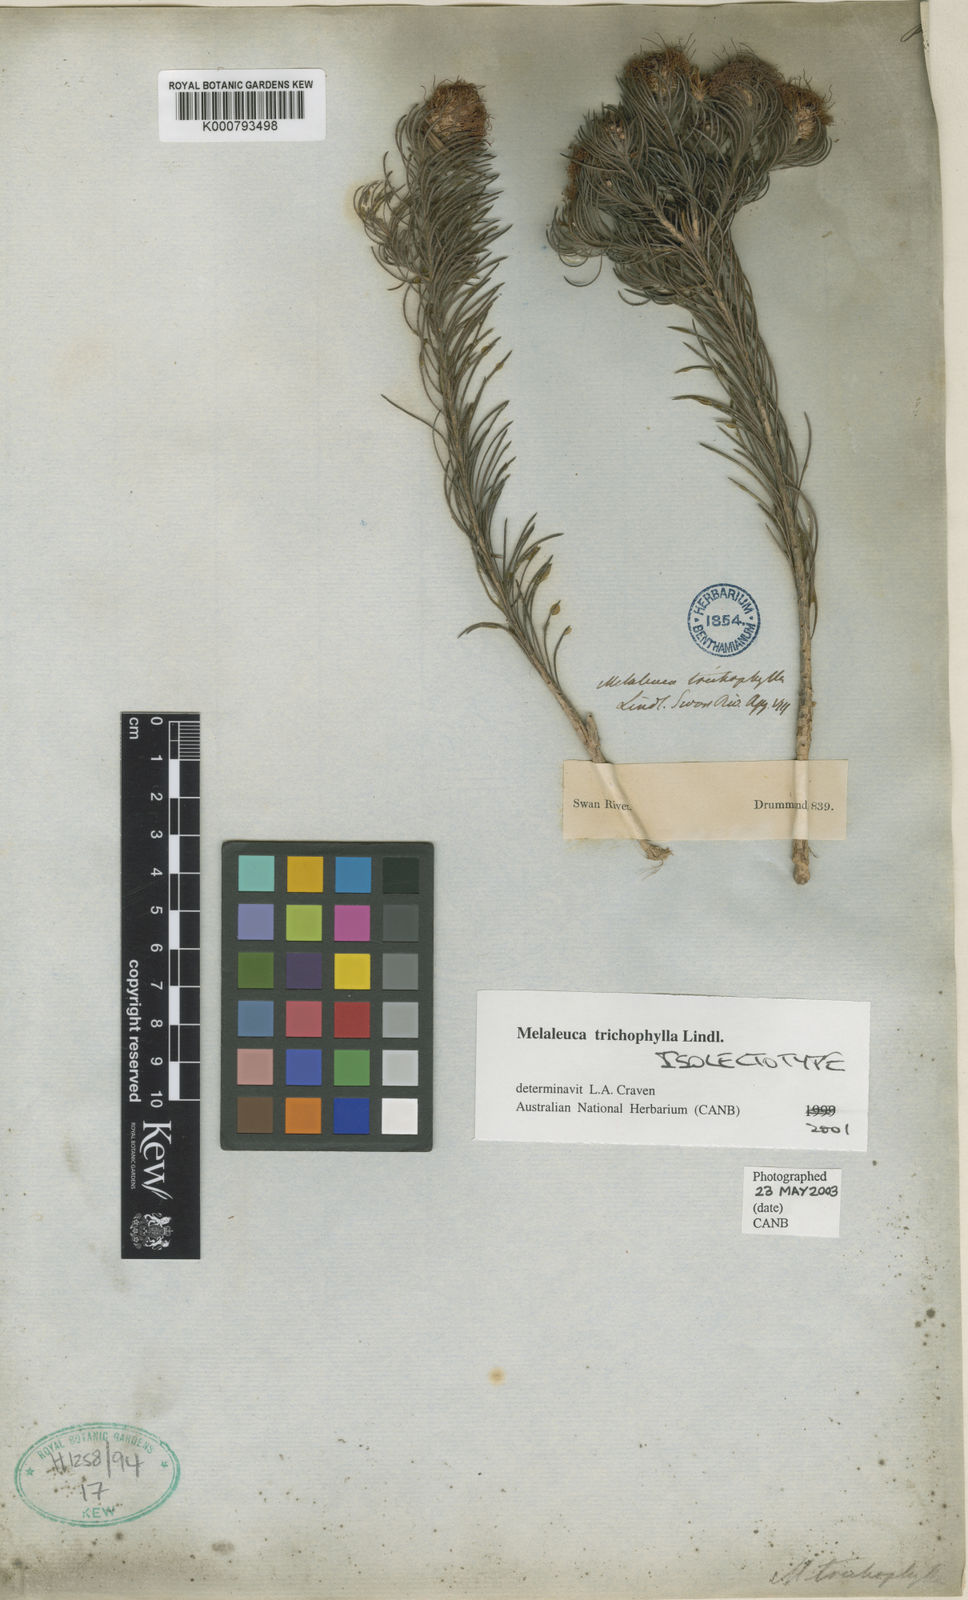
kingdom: Plantae
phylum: Tracheophyta
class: Magnoliopsida
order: Myrtales
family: Myrtaceae
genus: Melaleuca
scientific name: Melaleuca trichophylla
